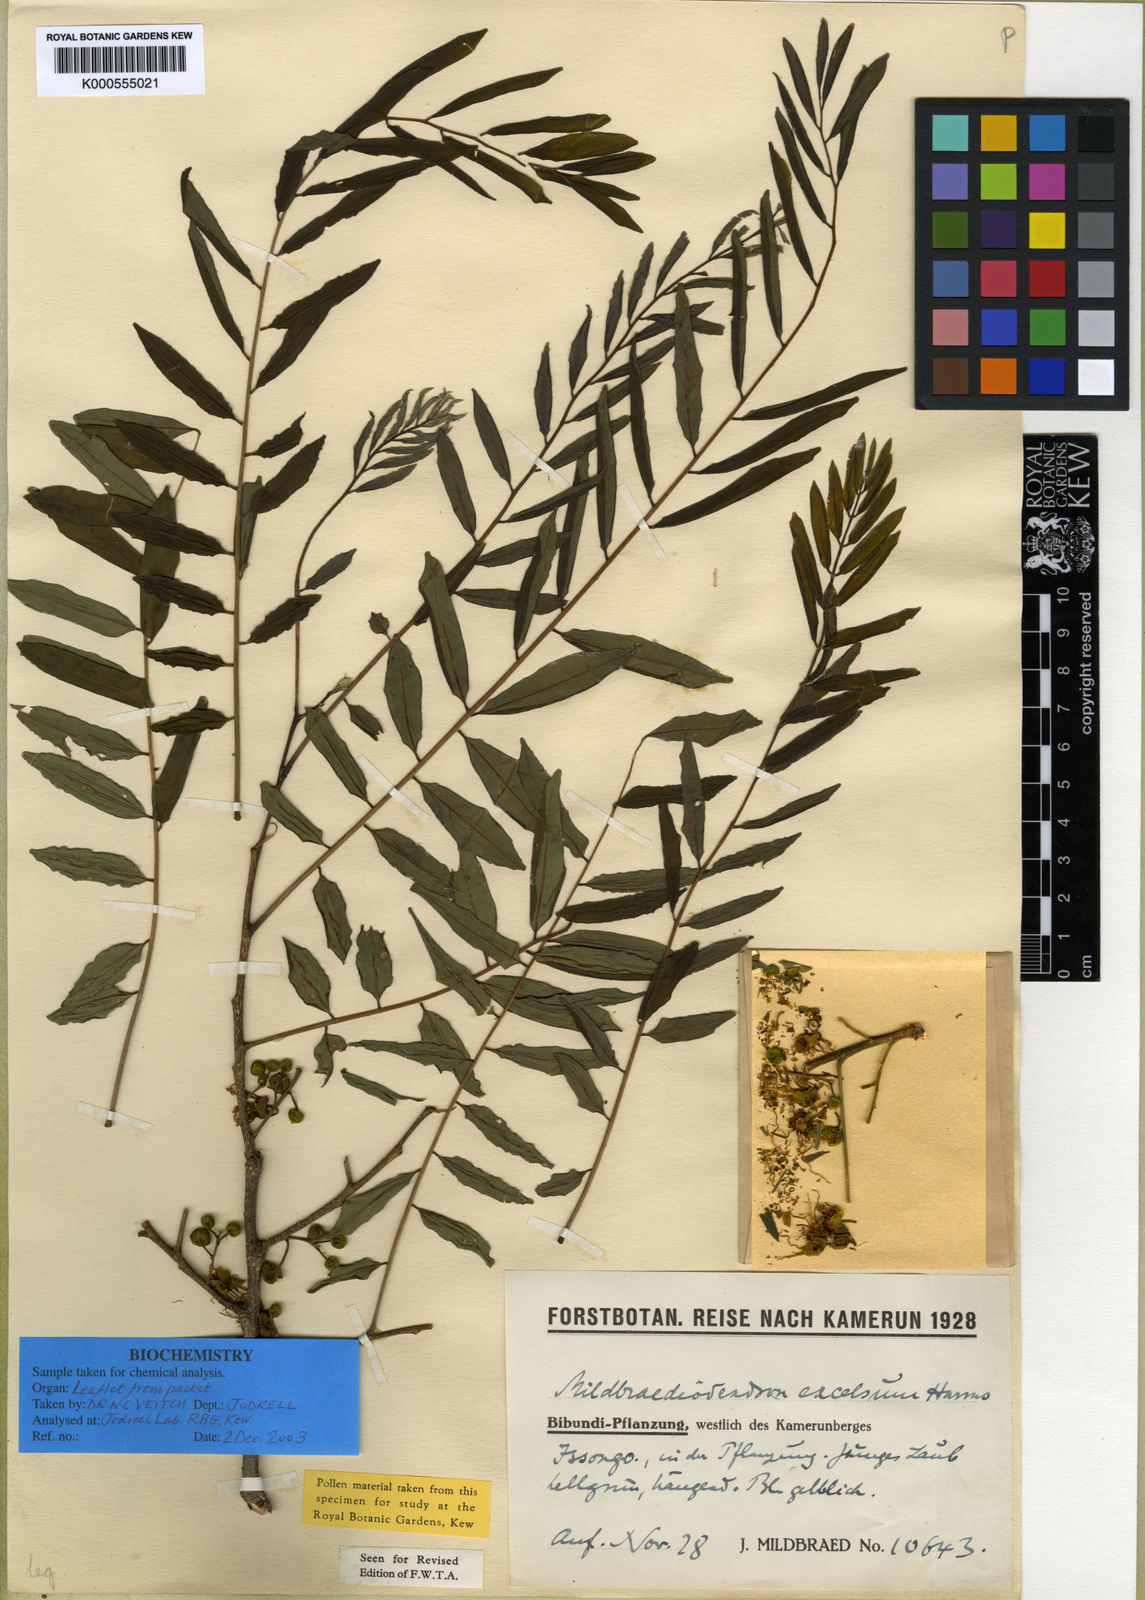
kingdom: Plantae
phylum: Tracheophyta
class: Magnoliopsida
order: Fabales
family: Fabaceae
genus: Mildbraediodendron
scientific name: Mildbraediodendron excelsum
